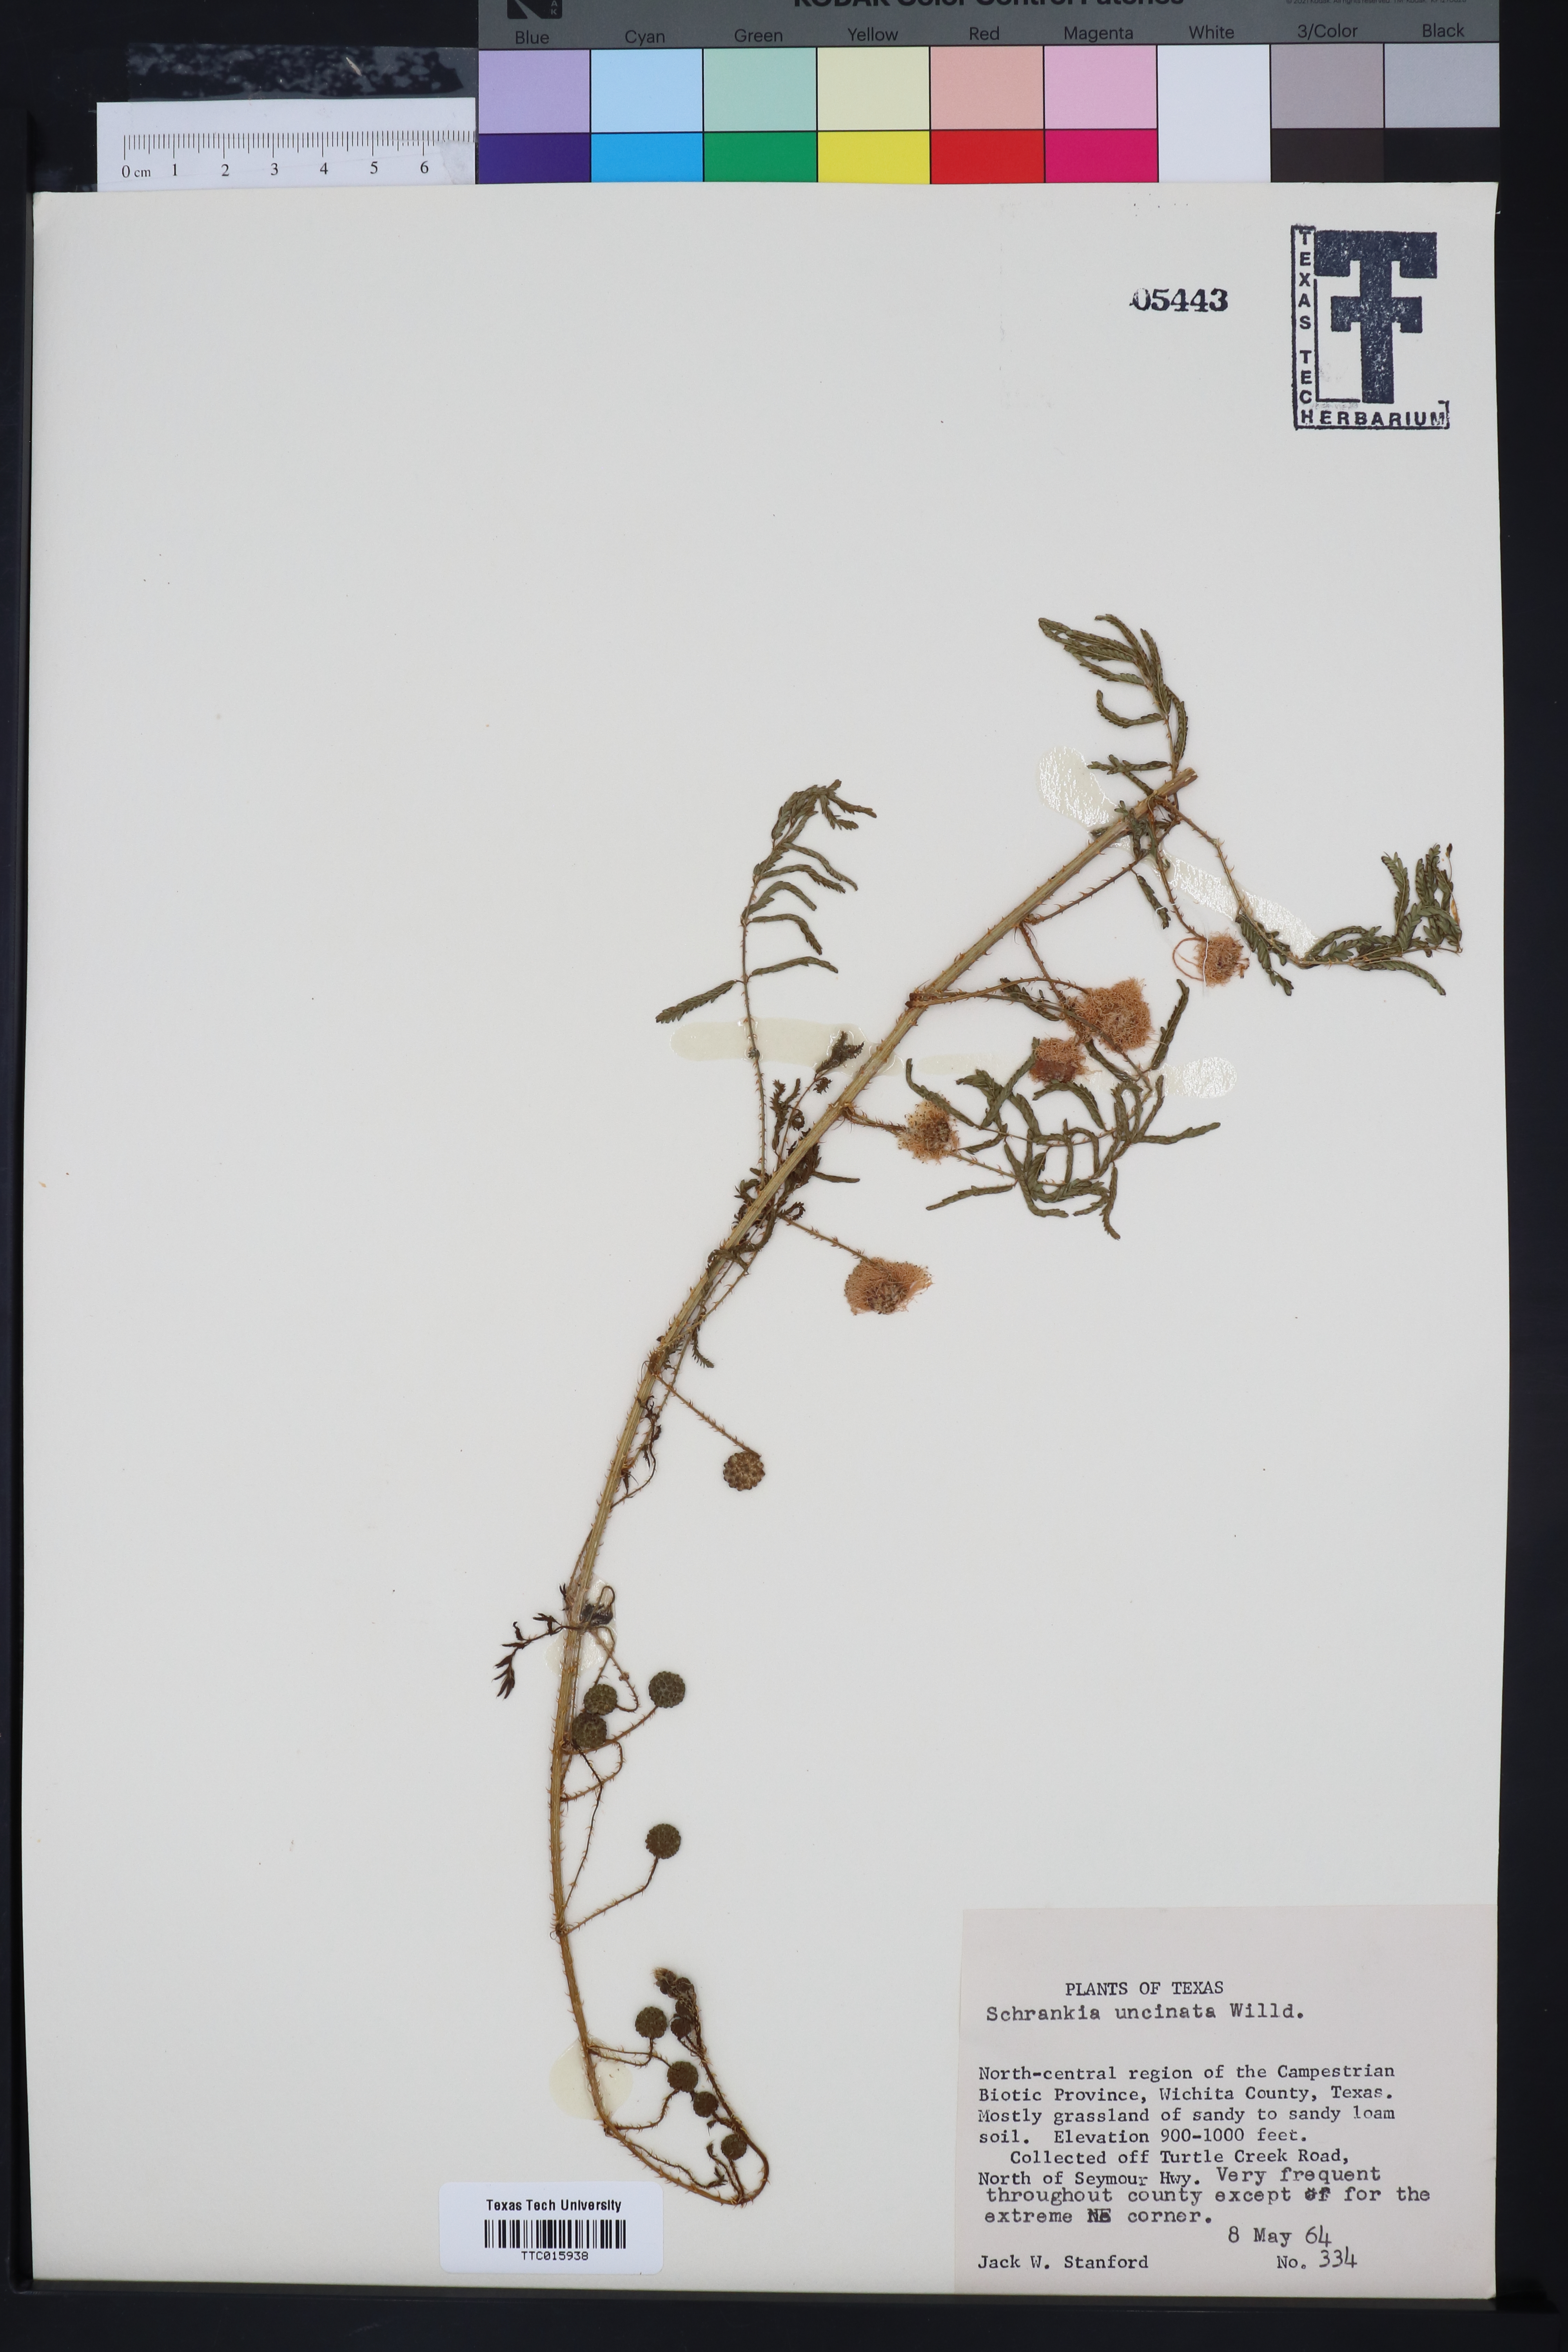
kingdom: Plantae
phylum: Tracheophyta
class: Magnoliopsida
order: Fabales
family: Fabaceae
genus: Mimosa
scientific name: Mimosa quadrivalvis
